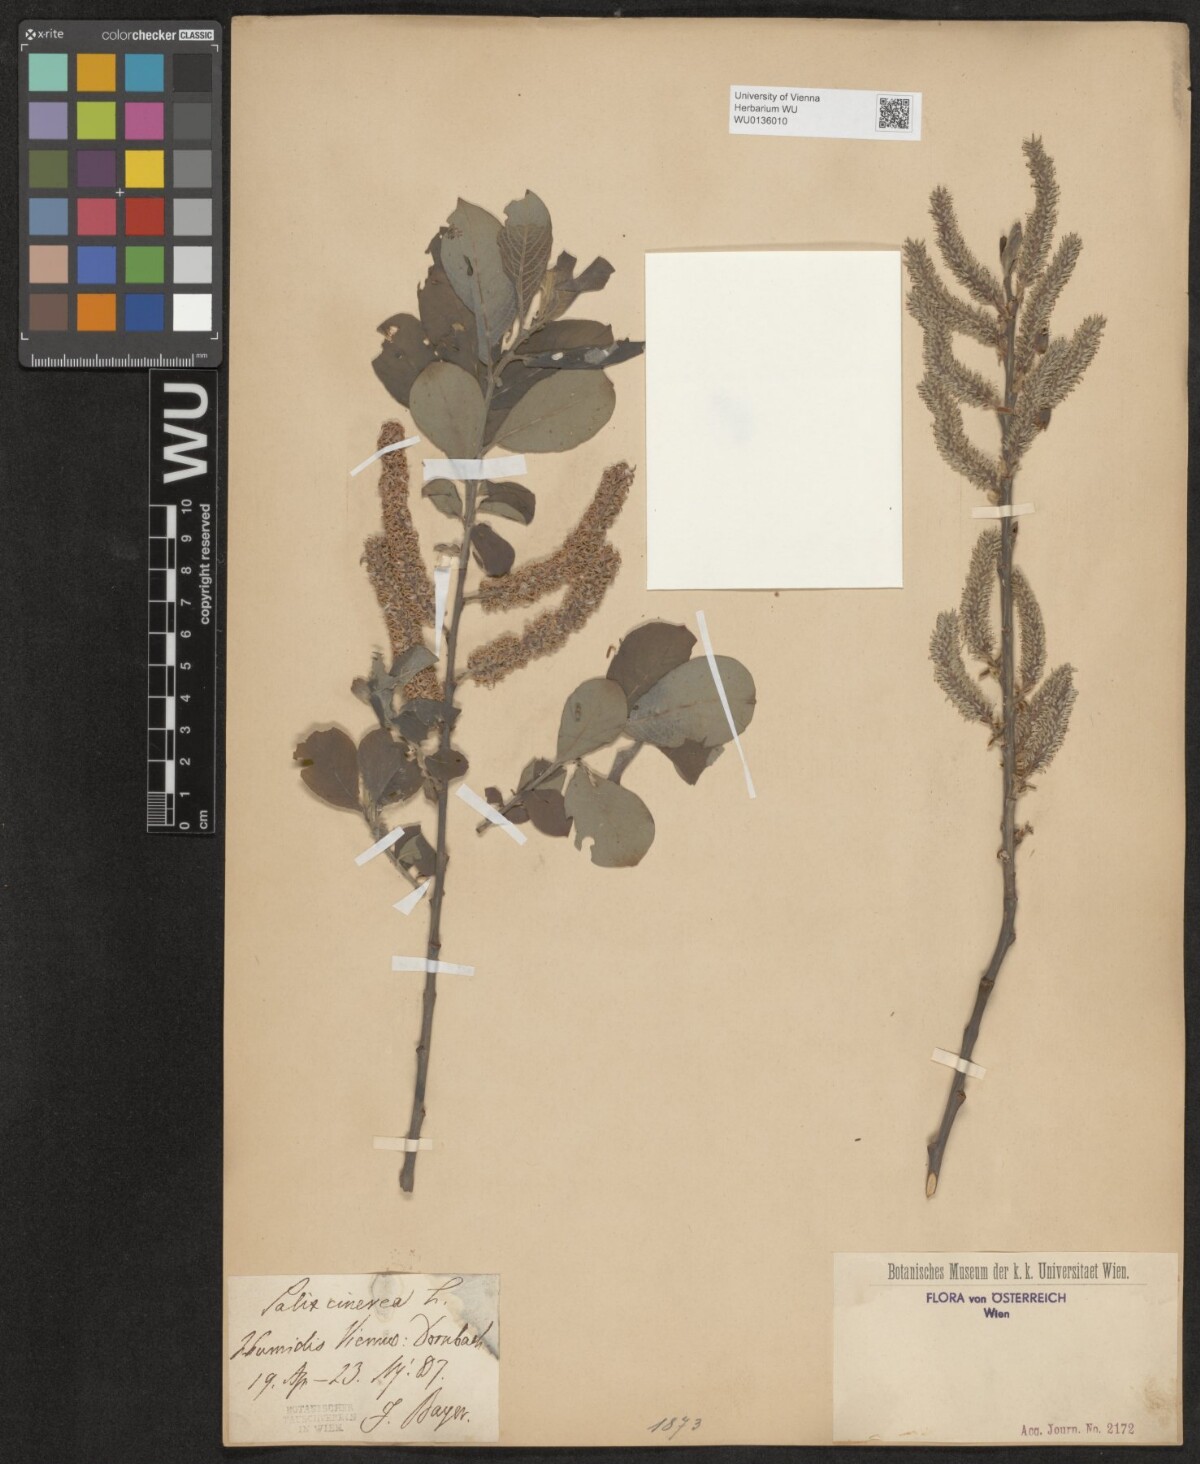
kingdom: Plantae
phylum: Tracheophyta
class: Magnoliopsida
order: Malpighiales
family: Salicaceae
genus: Salix
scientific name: Salix cinerea
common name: Common sallow
